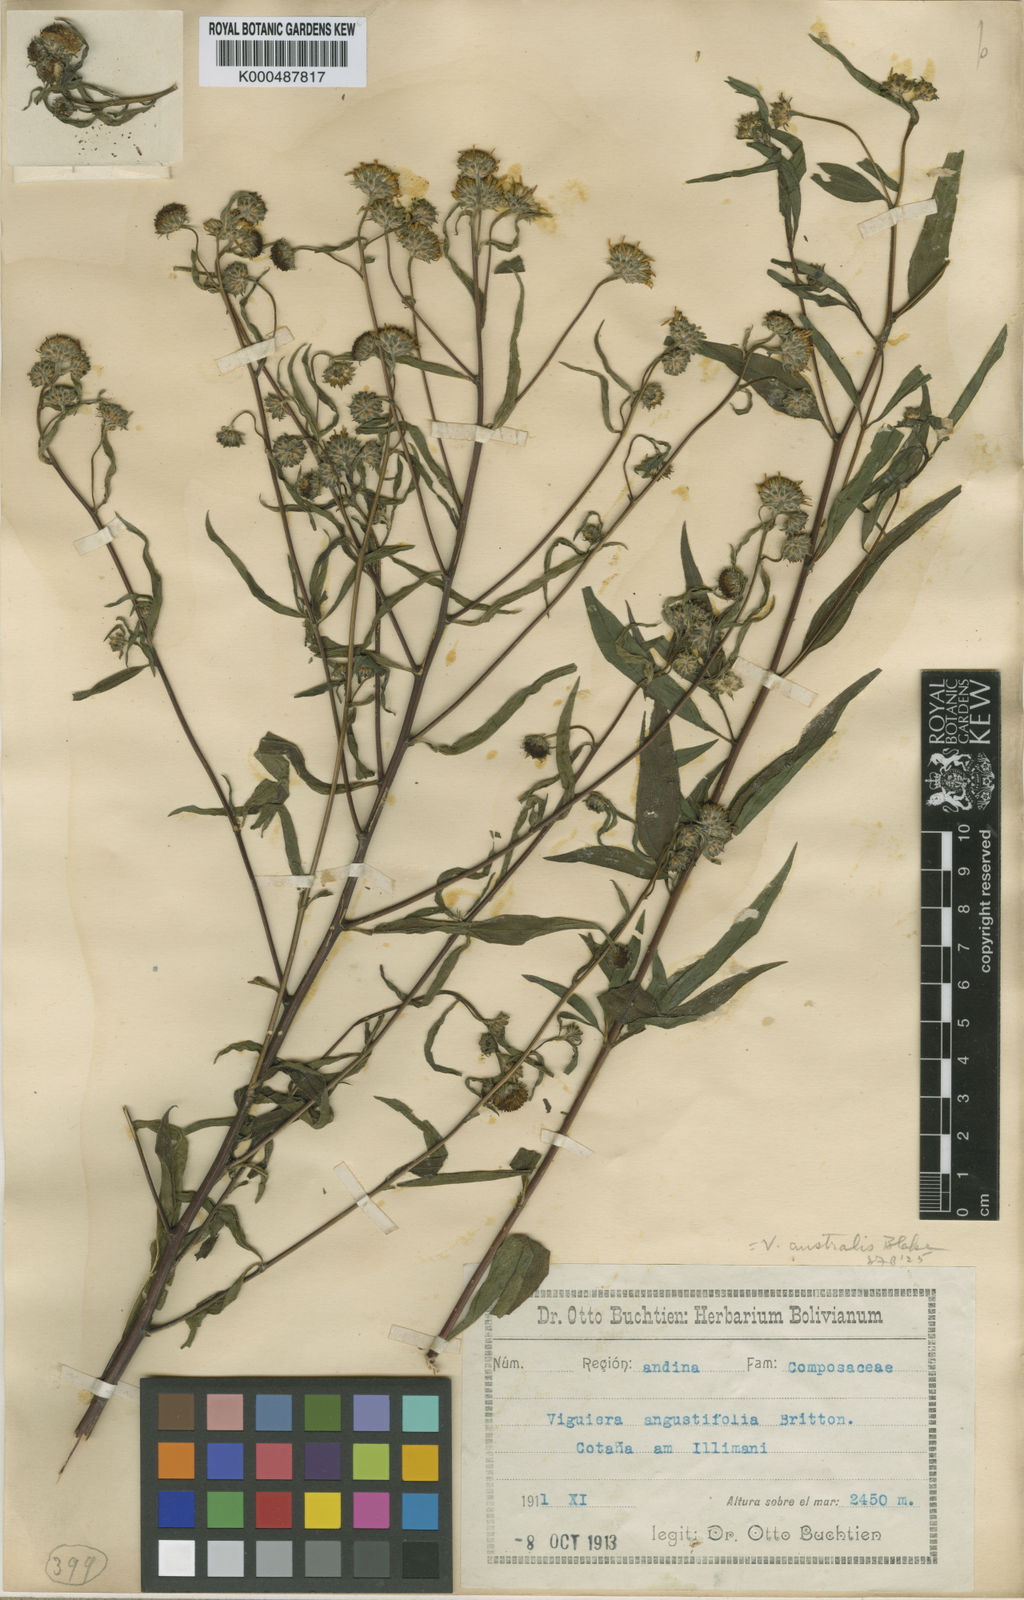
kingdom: Plantae
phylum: Tracheophyta
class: Magnoliopsida
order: Asterales
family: Asteraceae
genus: Aldama
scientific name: Aldama australis
